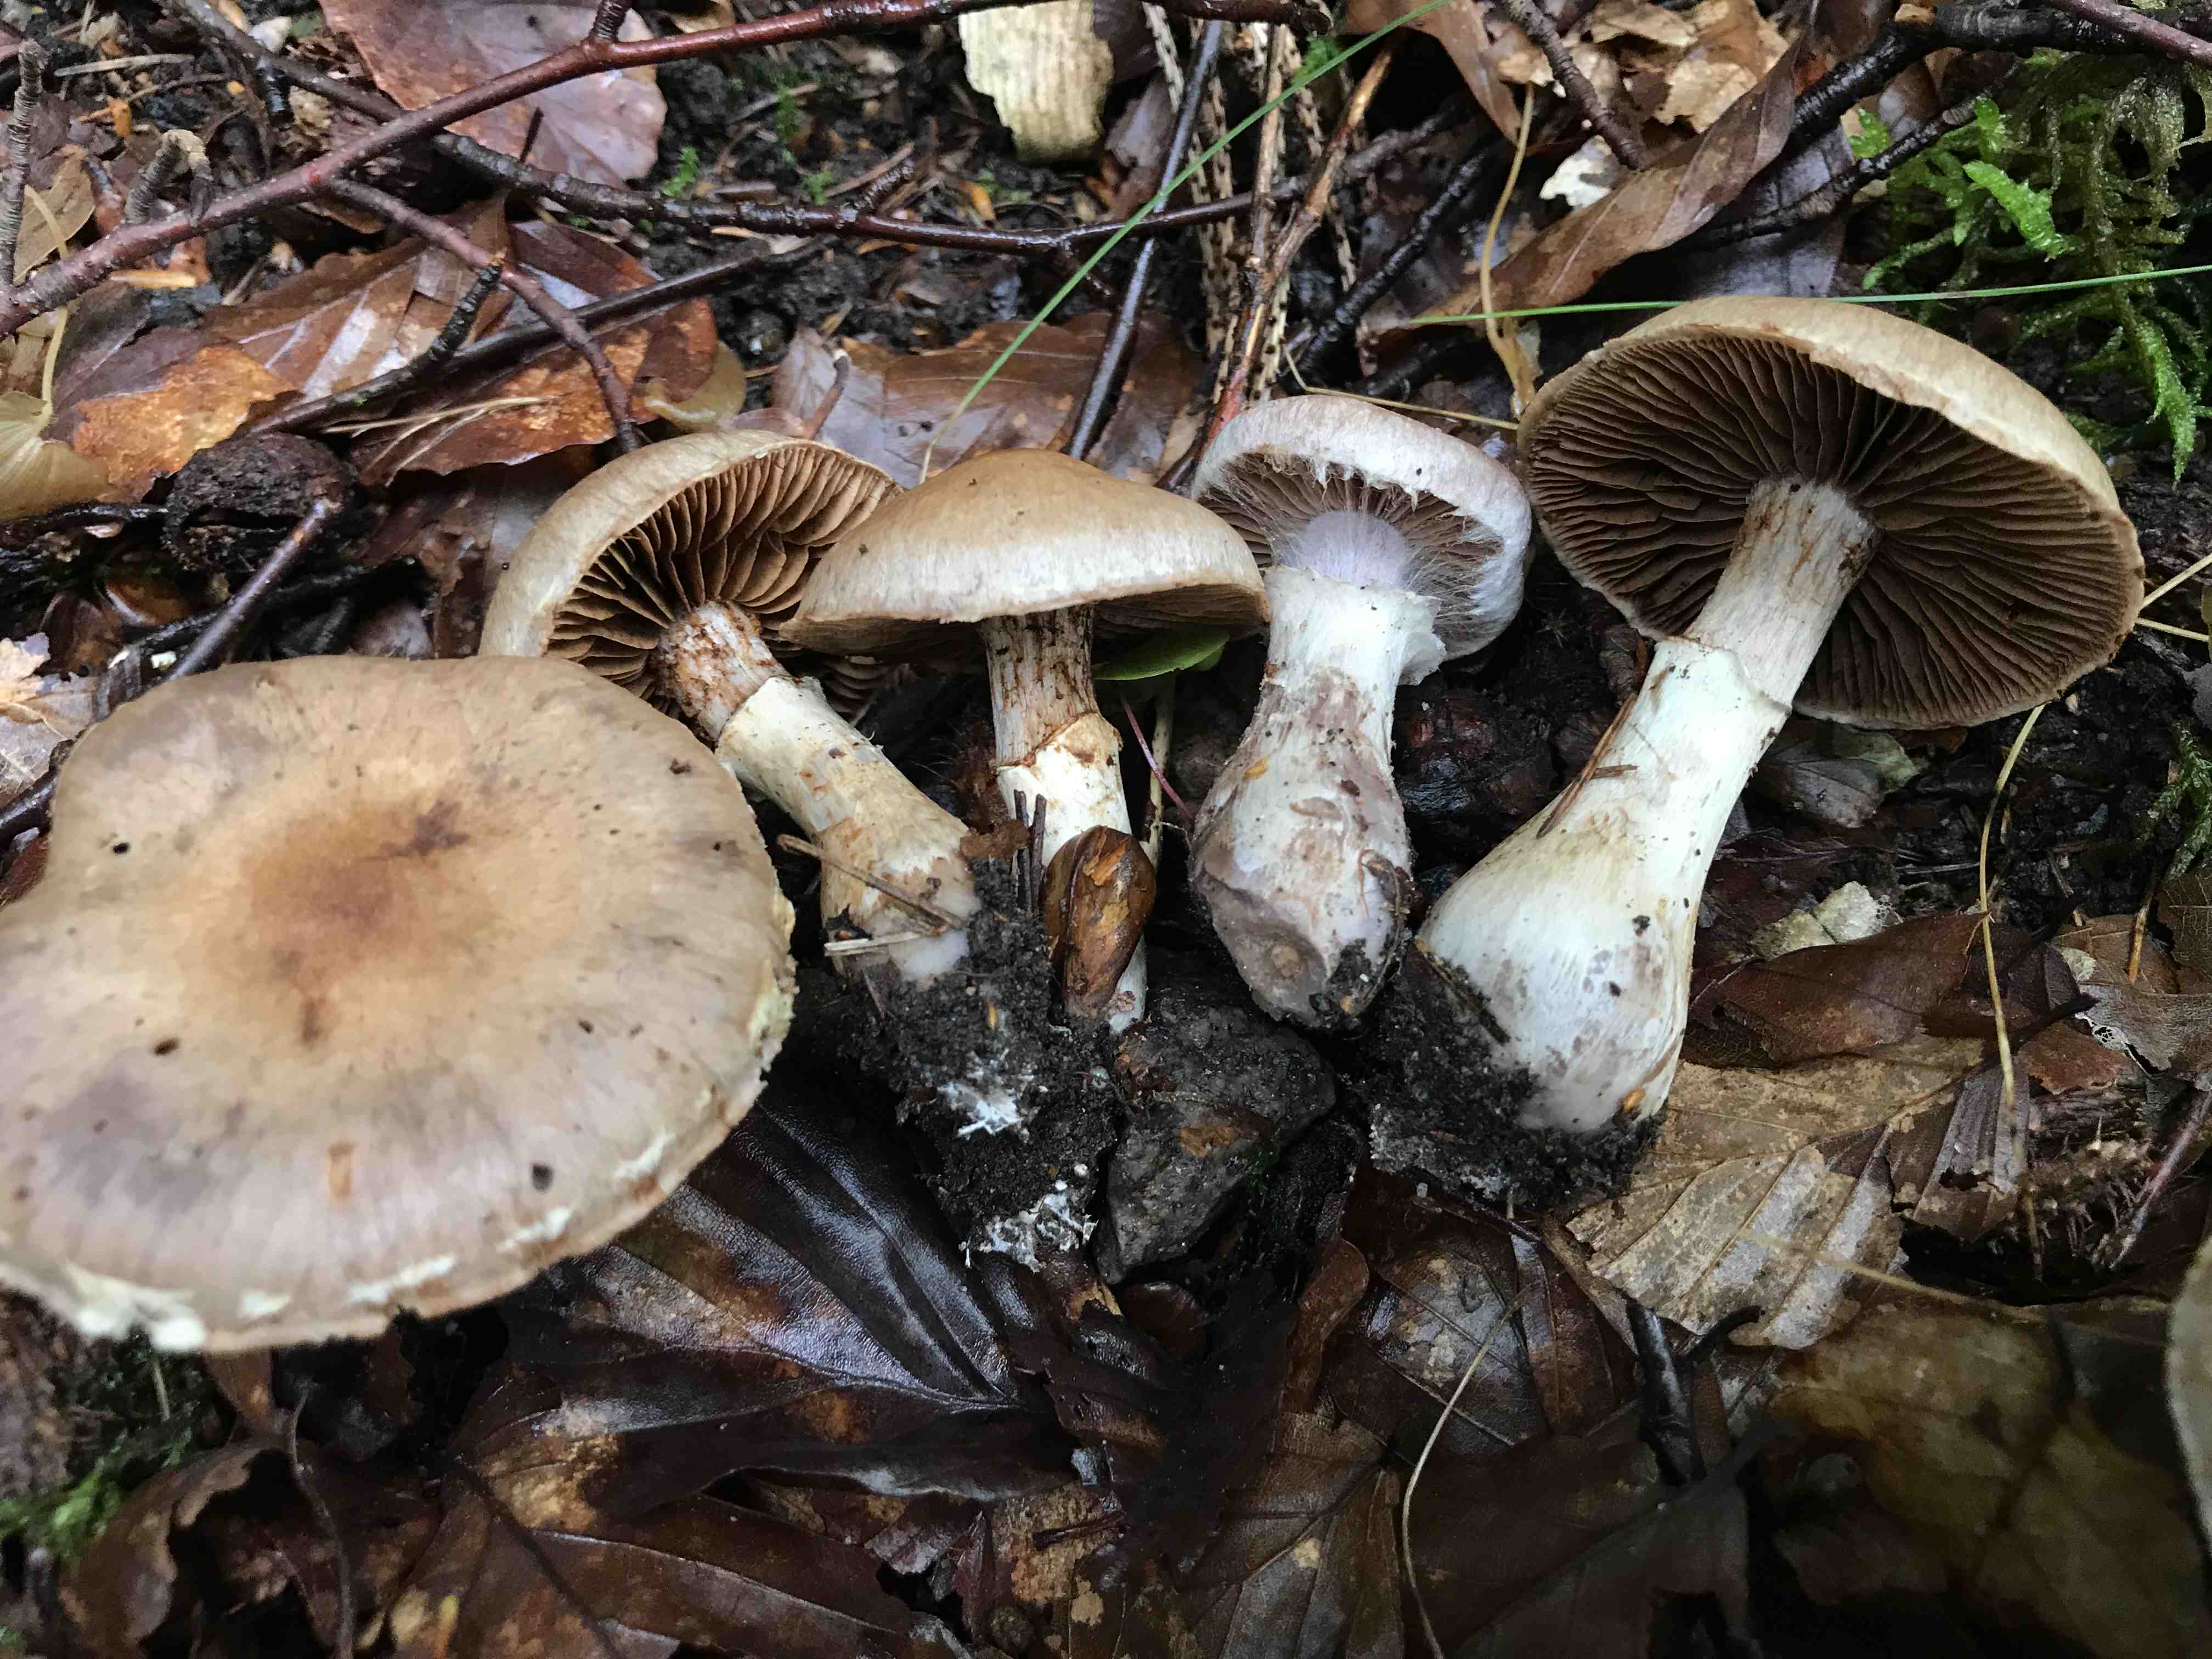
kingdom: Fungi
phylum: Basidiomycota
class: Agaricomycetes
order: Agaricales
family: Cortinariaceae
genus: Cortinarius
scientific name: Cortinarius torvus
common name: champignonagtig slørhat
